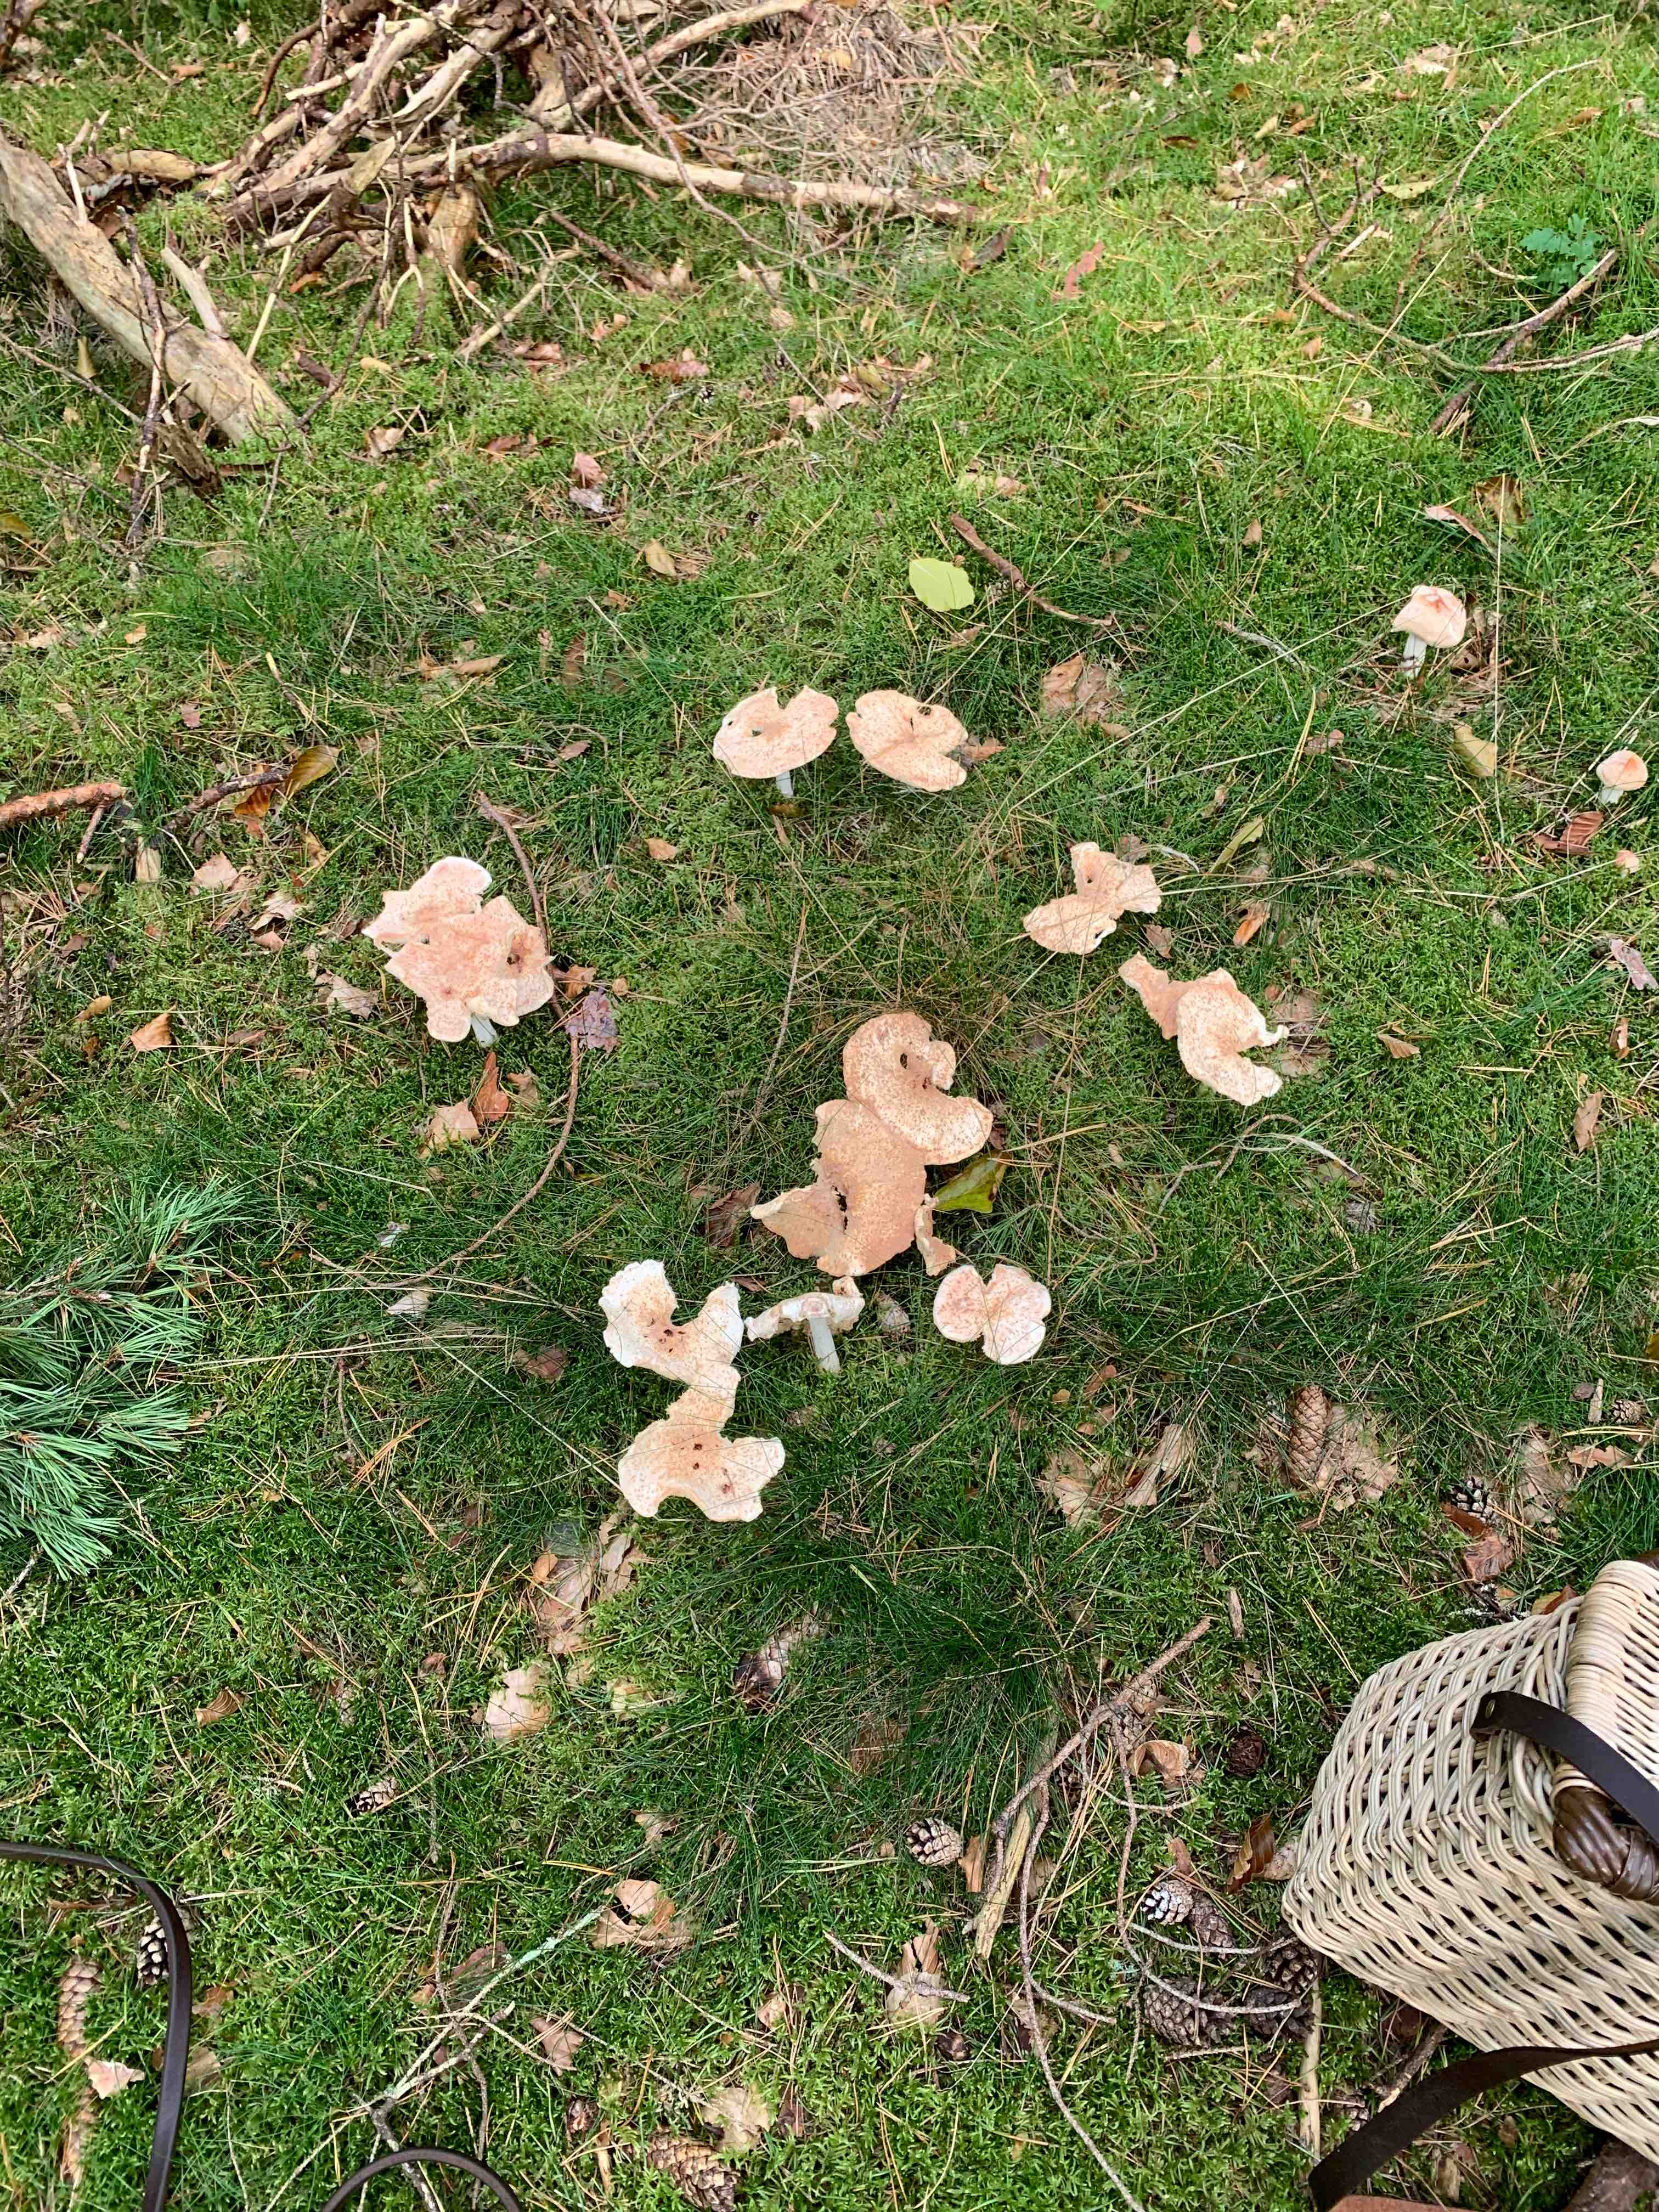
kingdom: Fungi
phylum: Basidiomycota
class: Agaricomycetes
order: Agaricales
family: Omphalotaceae
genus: Rhodocollybia
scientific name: Rhodocollybia maculata
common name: plettet fladhat
